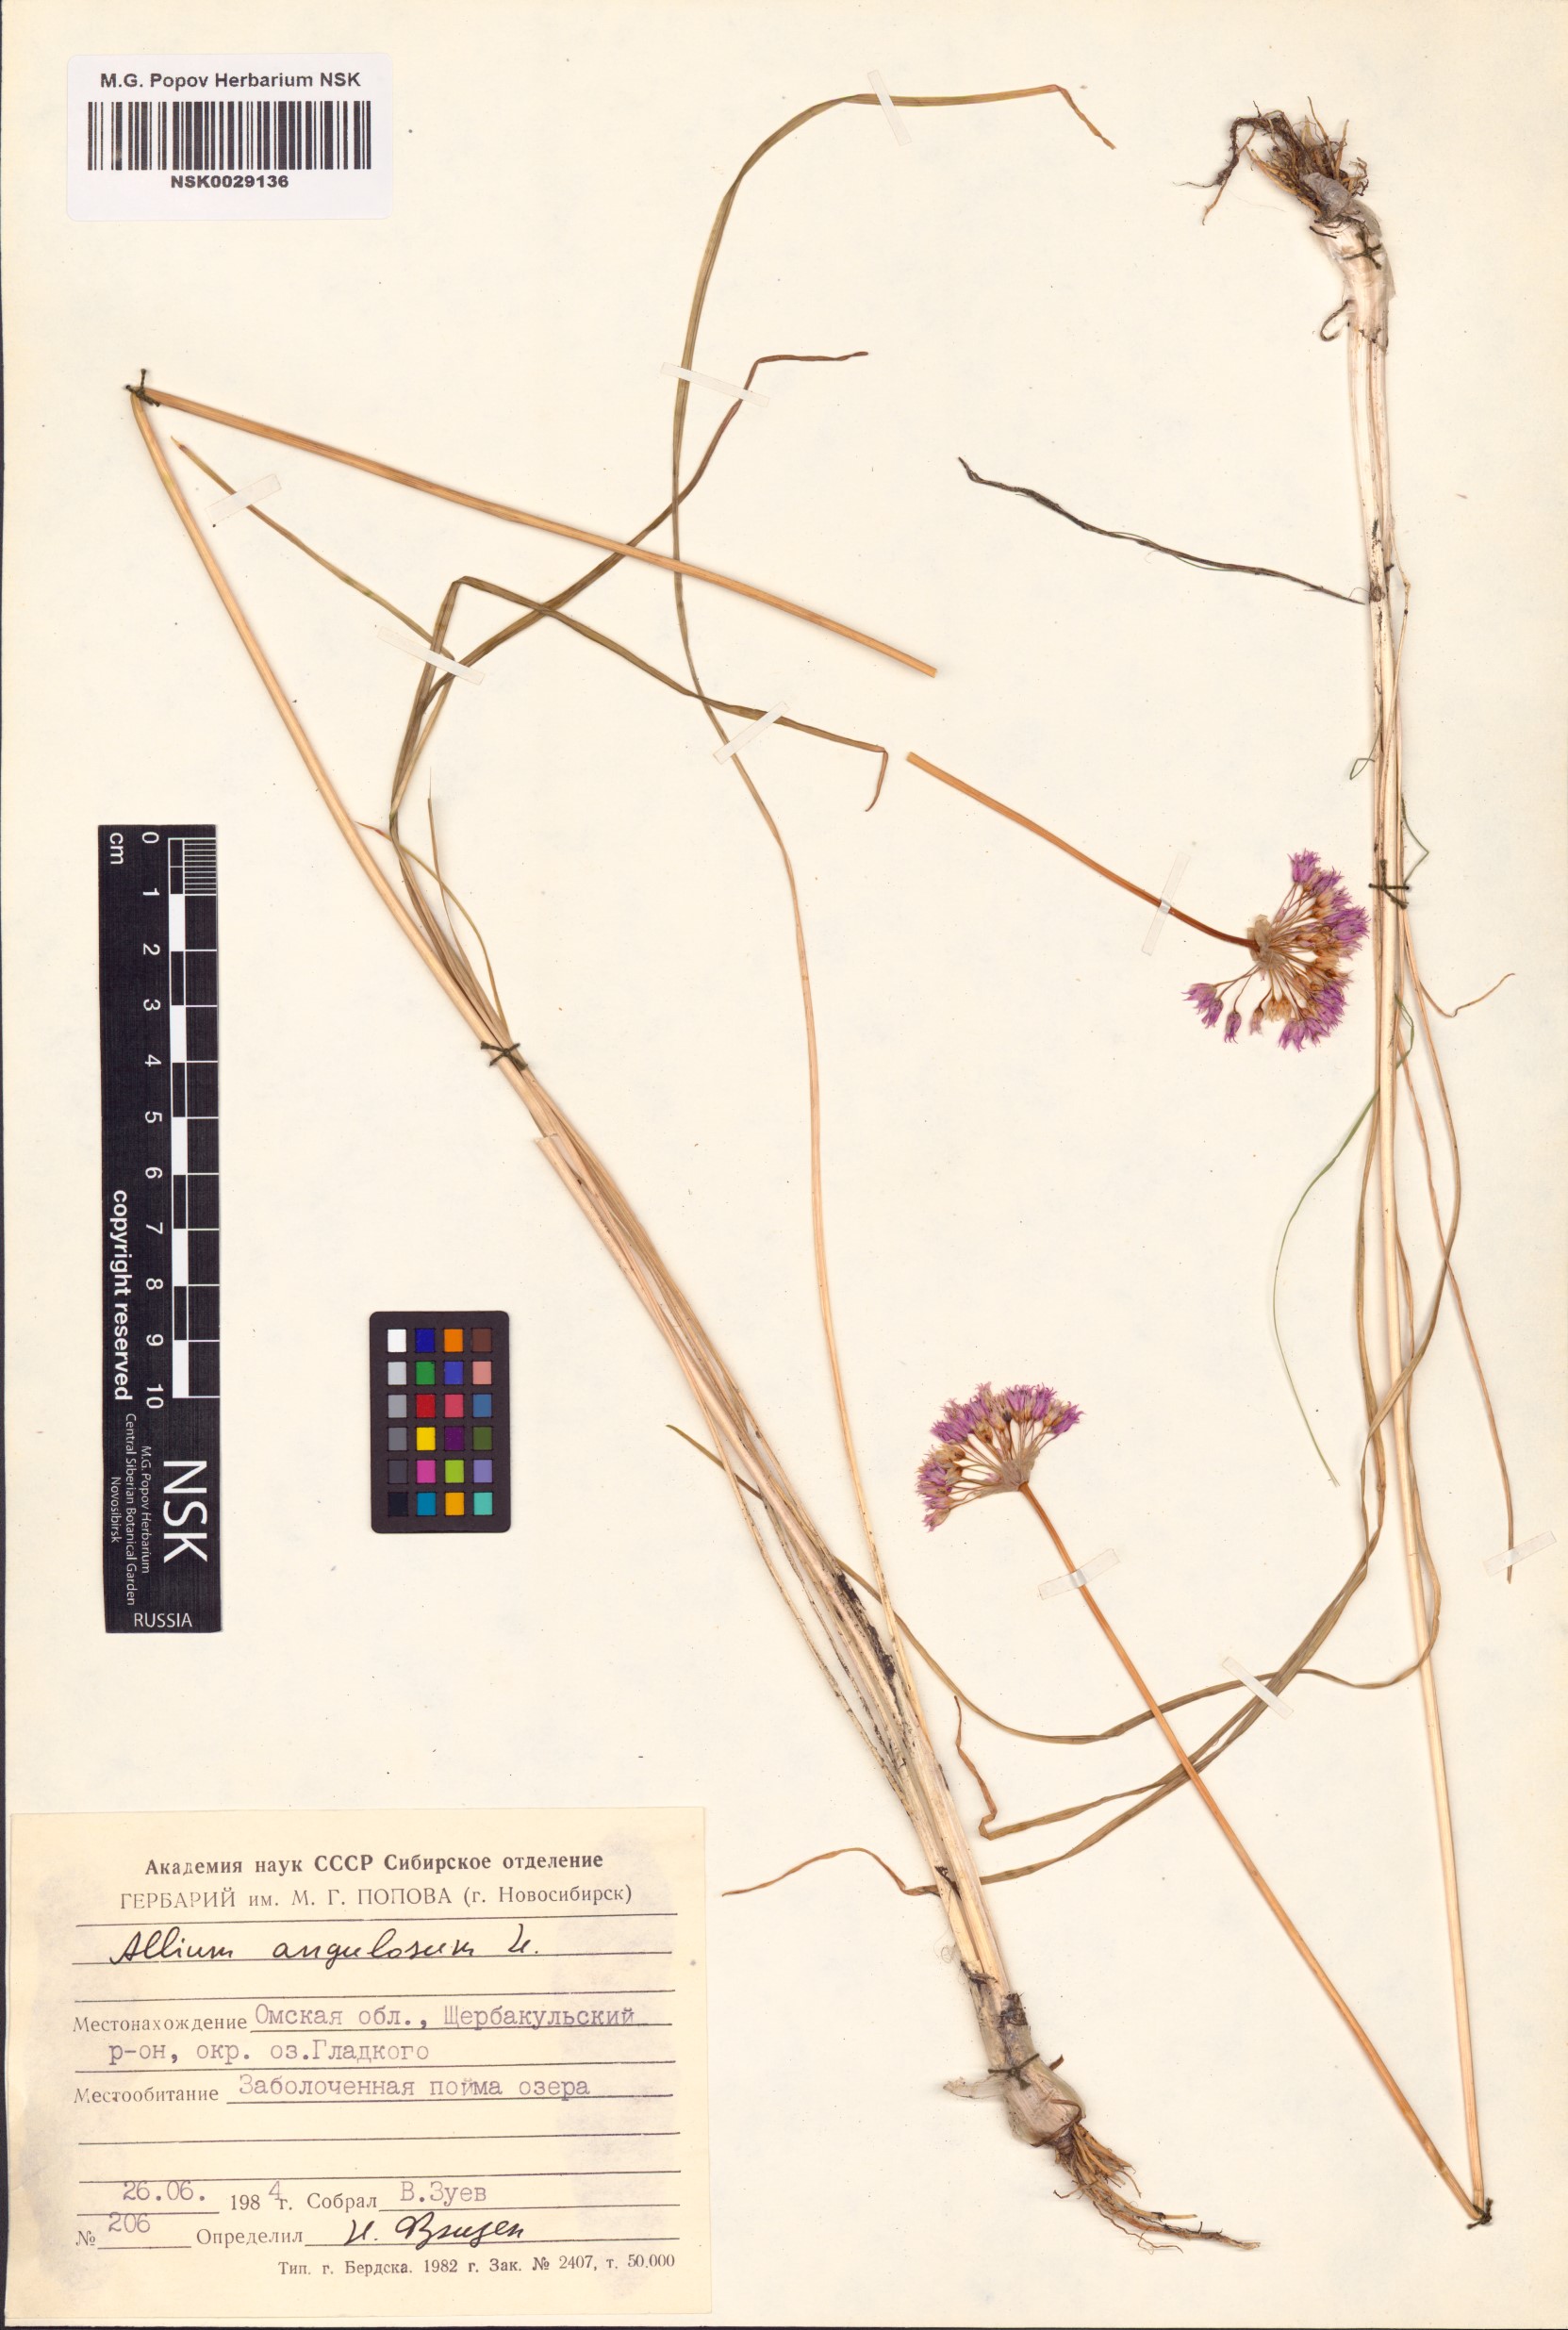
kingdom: Plantae
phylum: Tracheophyta
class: Liliopsida
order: Asparagales
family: Amaryllidaceae
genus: Allium
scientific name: Allium angulosum
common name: Mouse garlic
